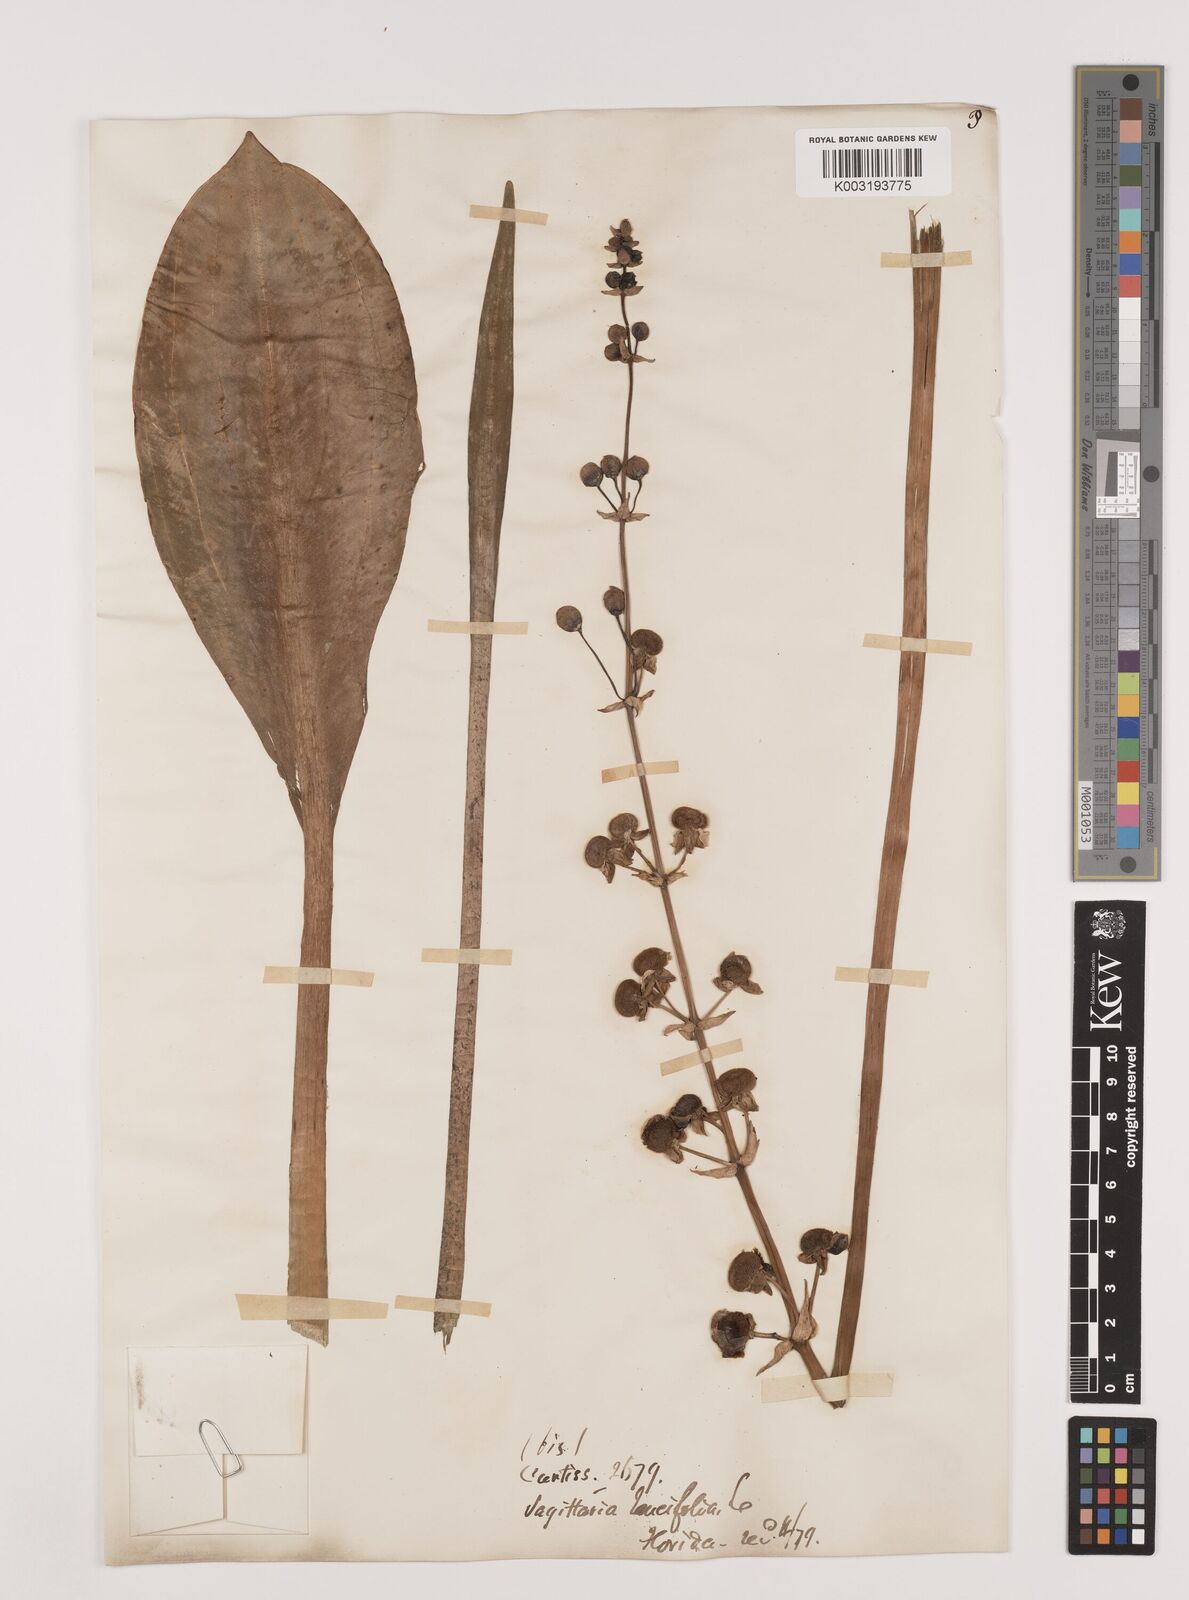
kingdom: Plantae
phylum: Tracheophyta
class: Liliopsida
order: Alismatales
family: Alismataceae
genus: Sagittaria
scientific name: Sagittaria lancifolia
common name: Lance-leaf arrowhead
